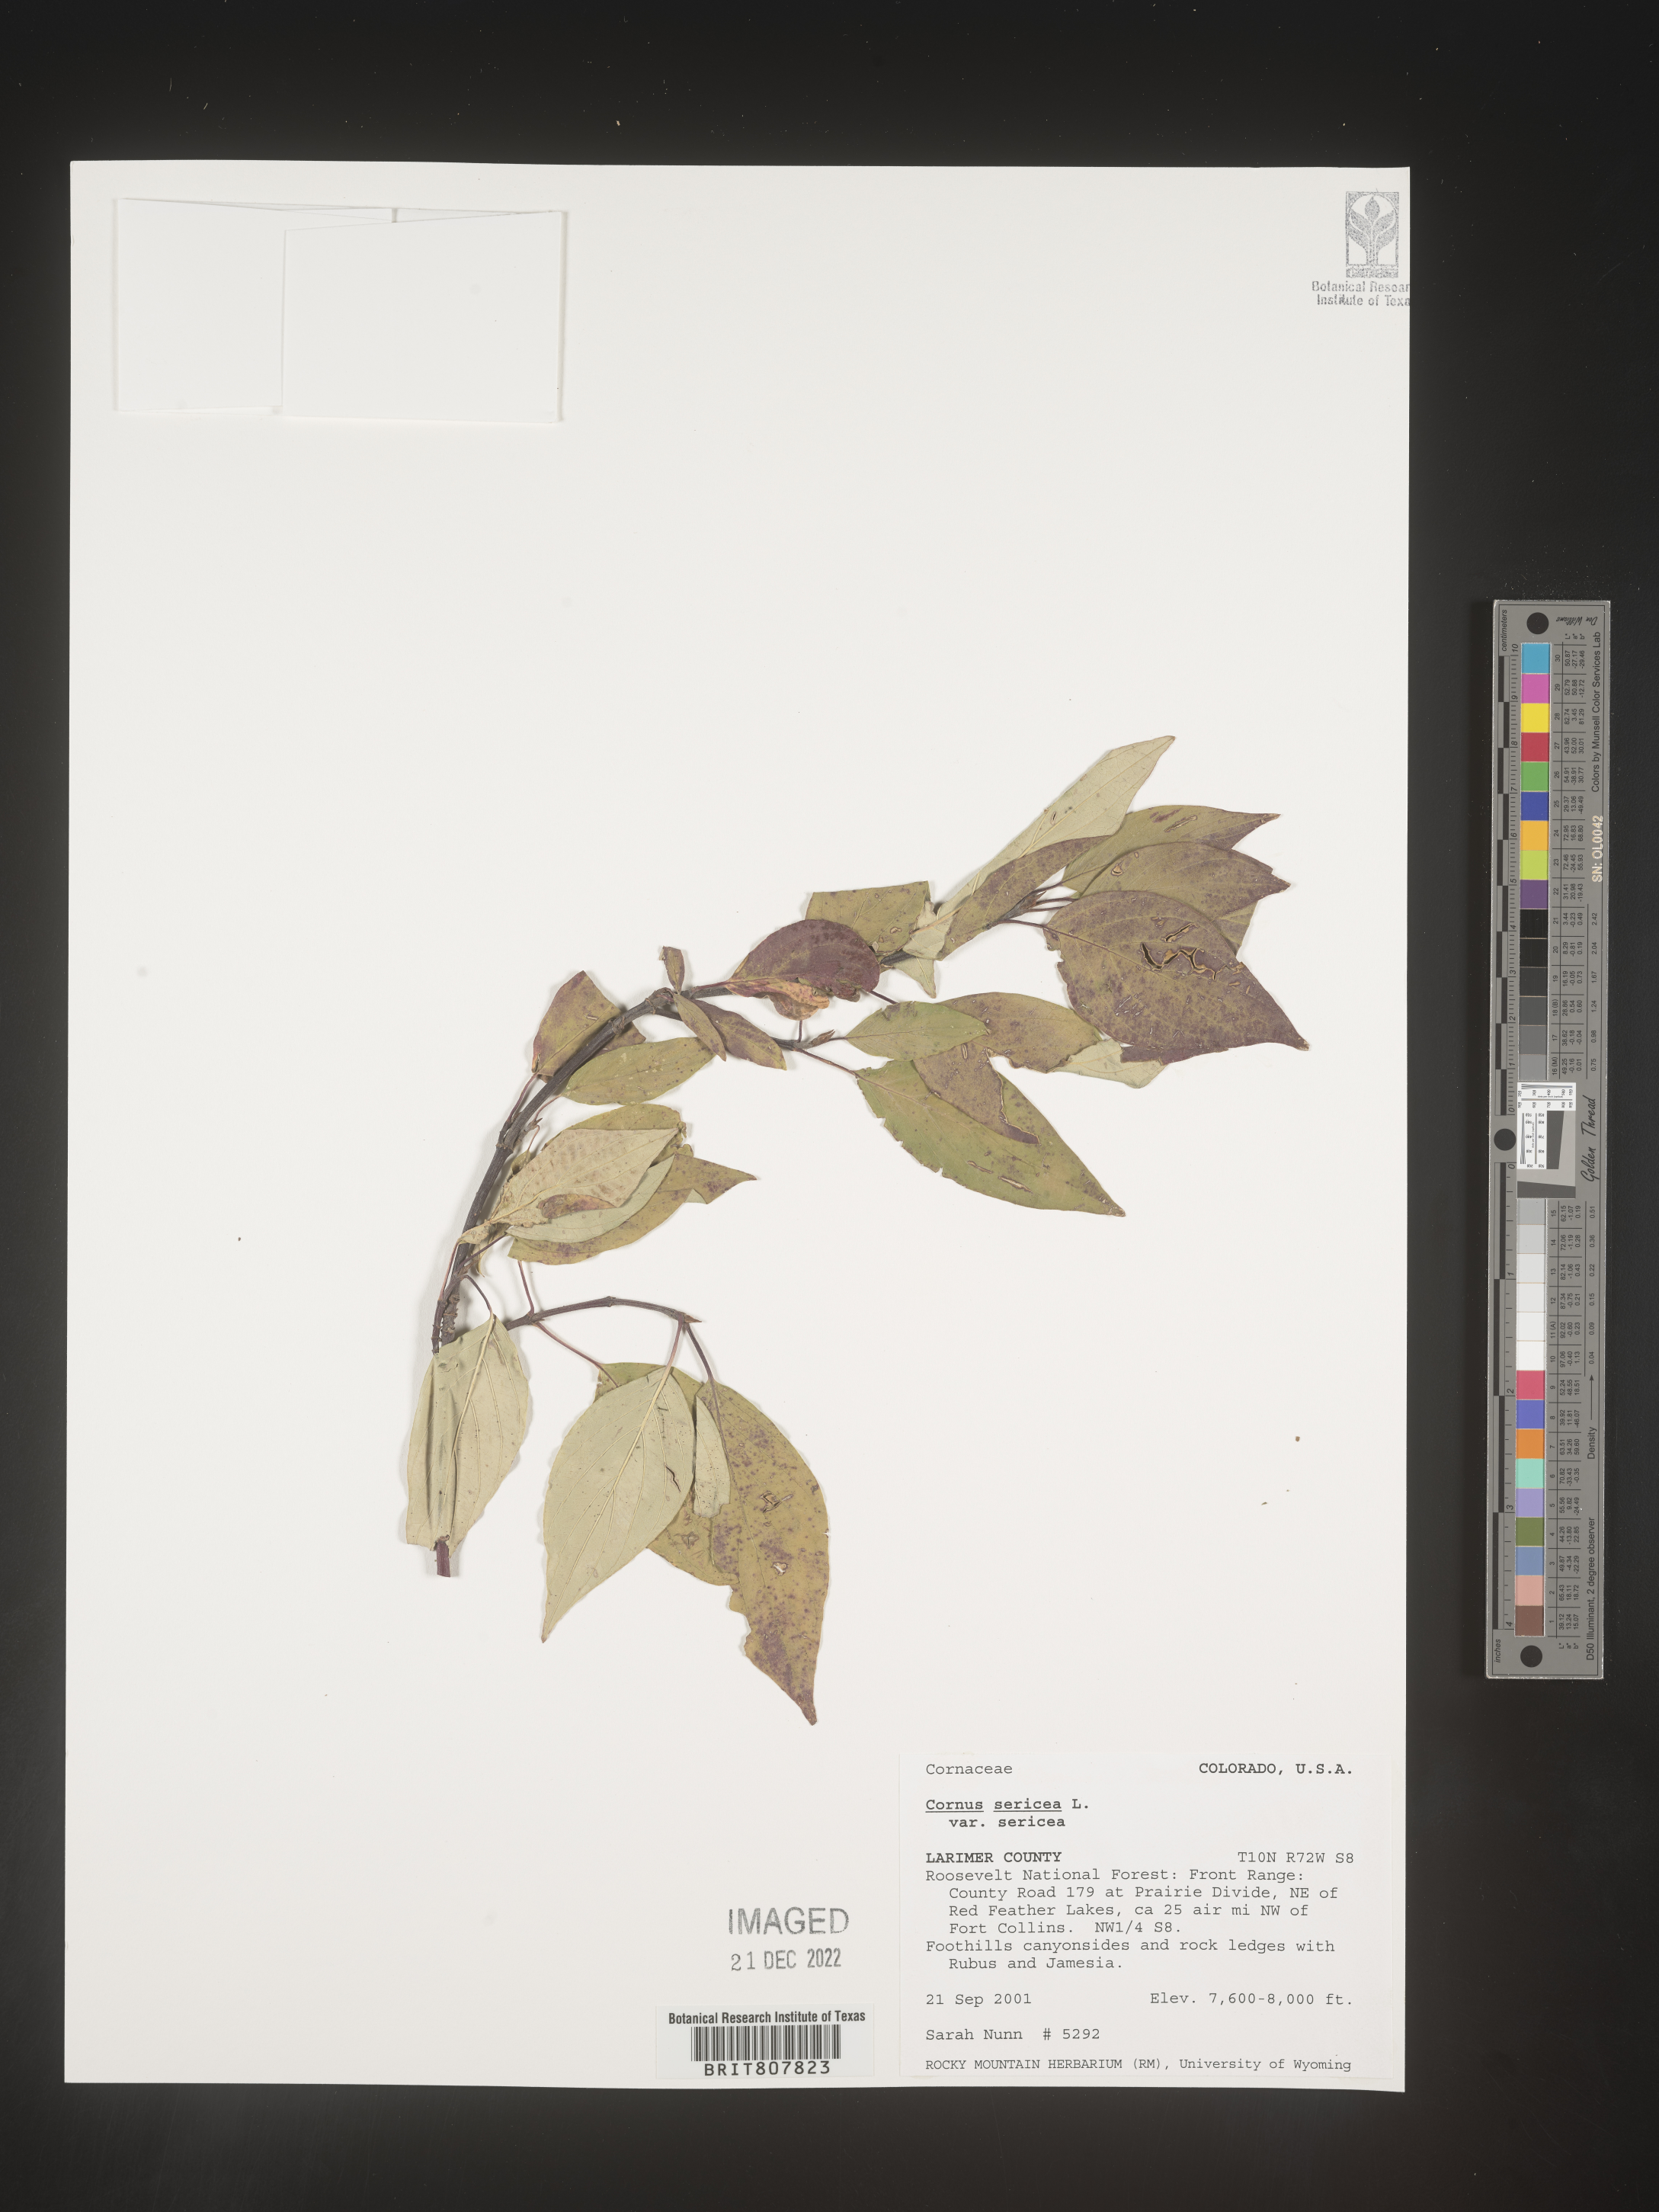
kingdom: Plantae
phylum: Tracheophyta
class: Magnoliopsida
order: Cornales
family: Cornaceae
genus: Cornus
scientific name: Cornus
